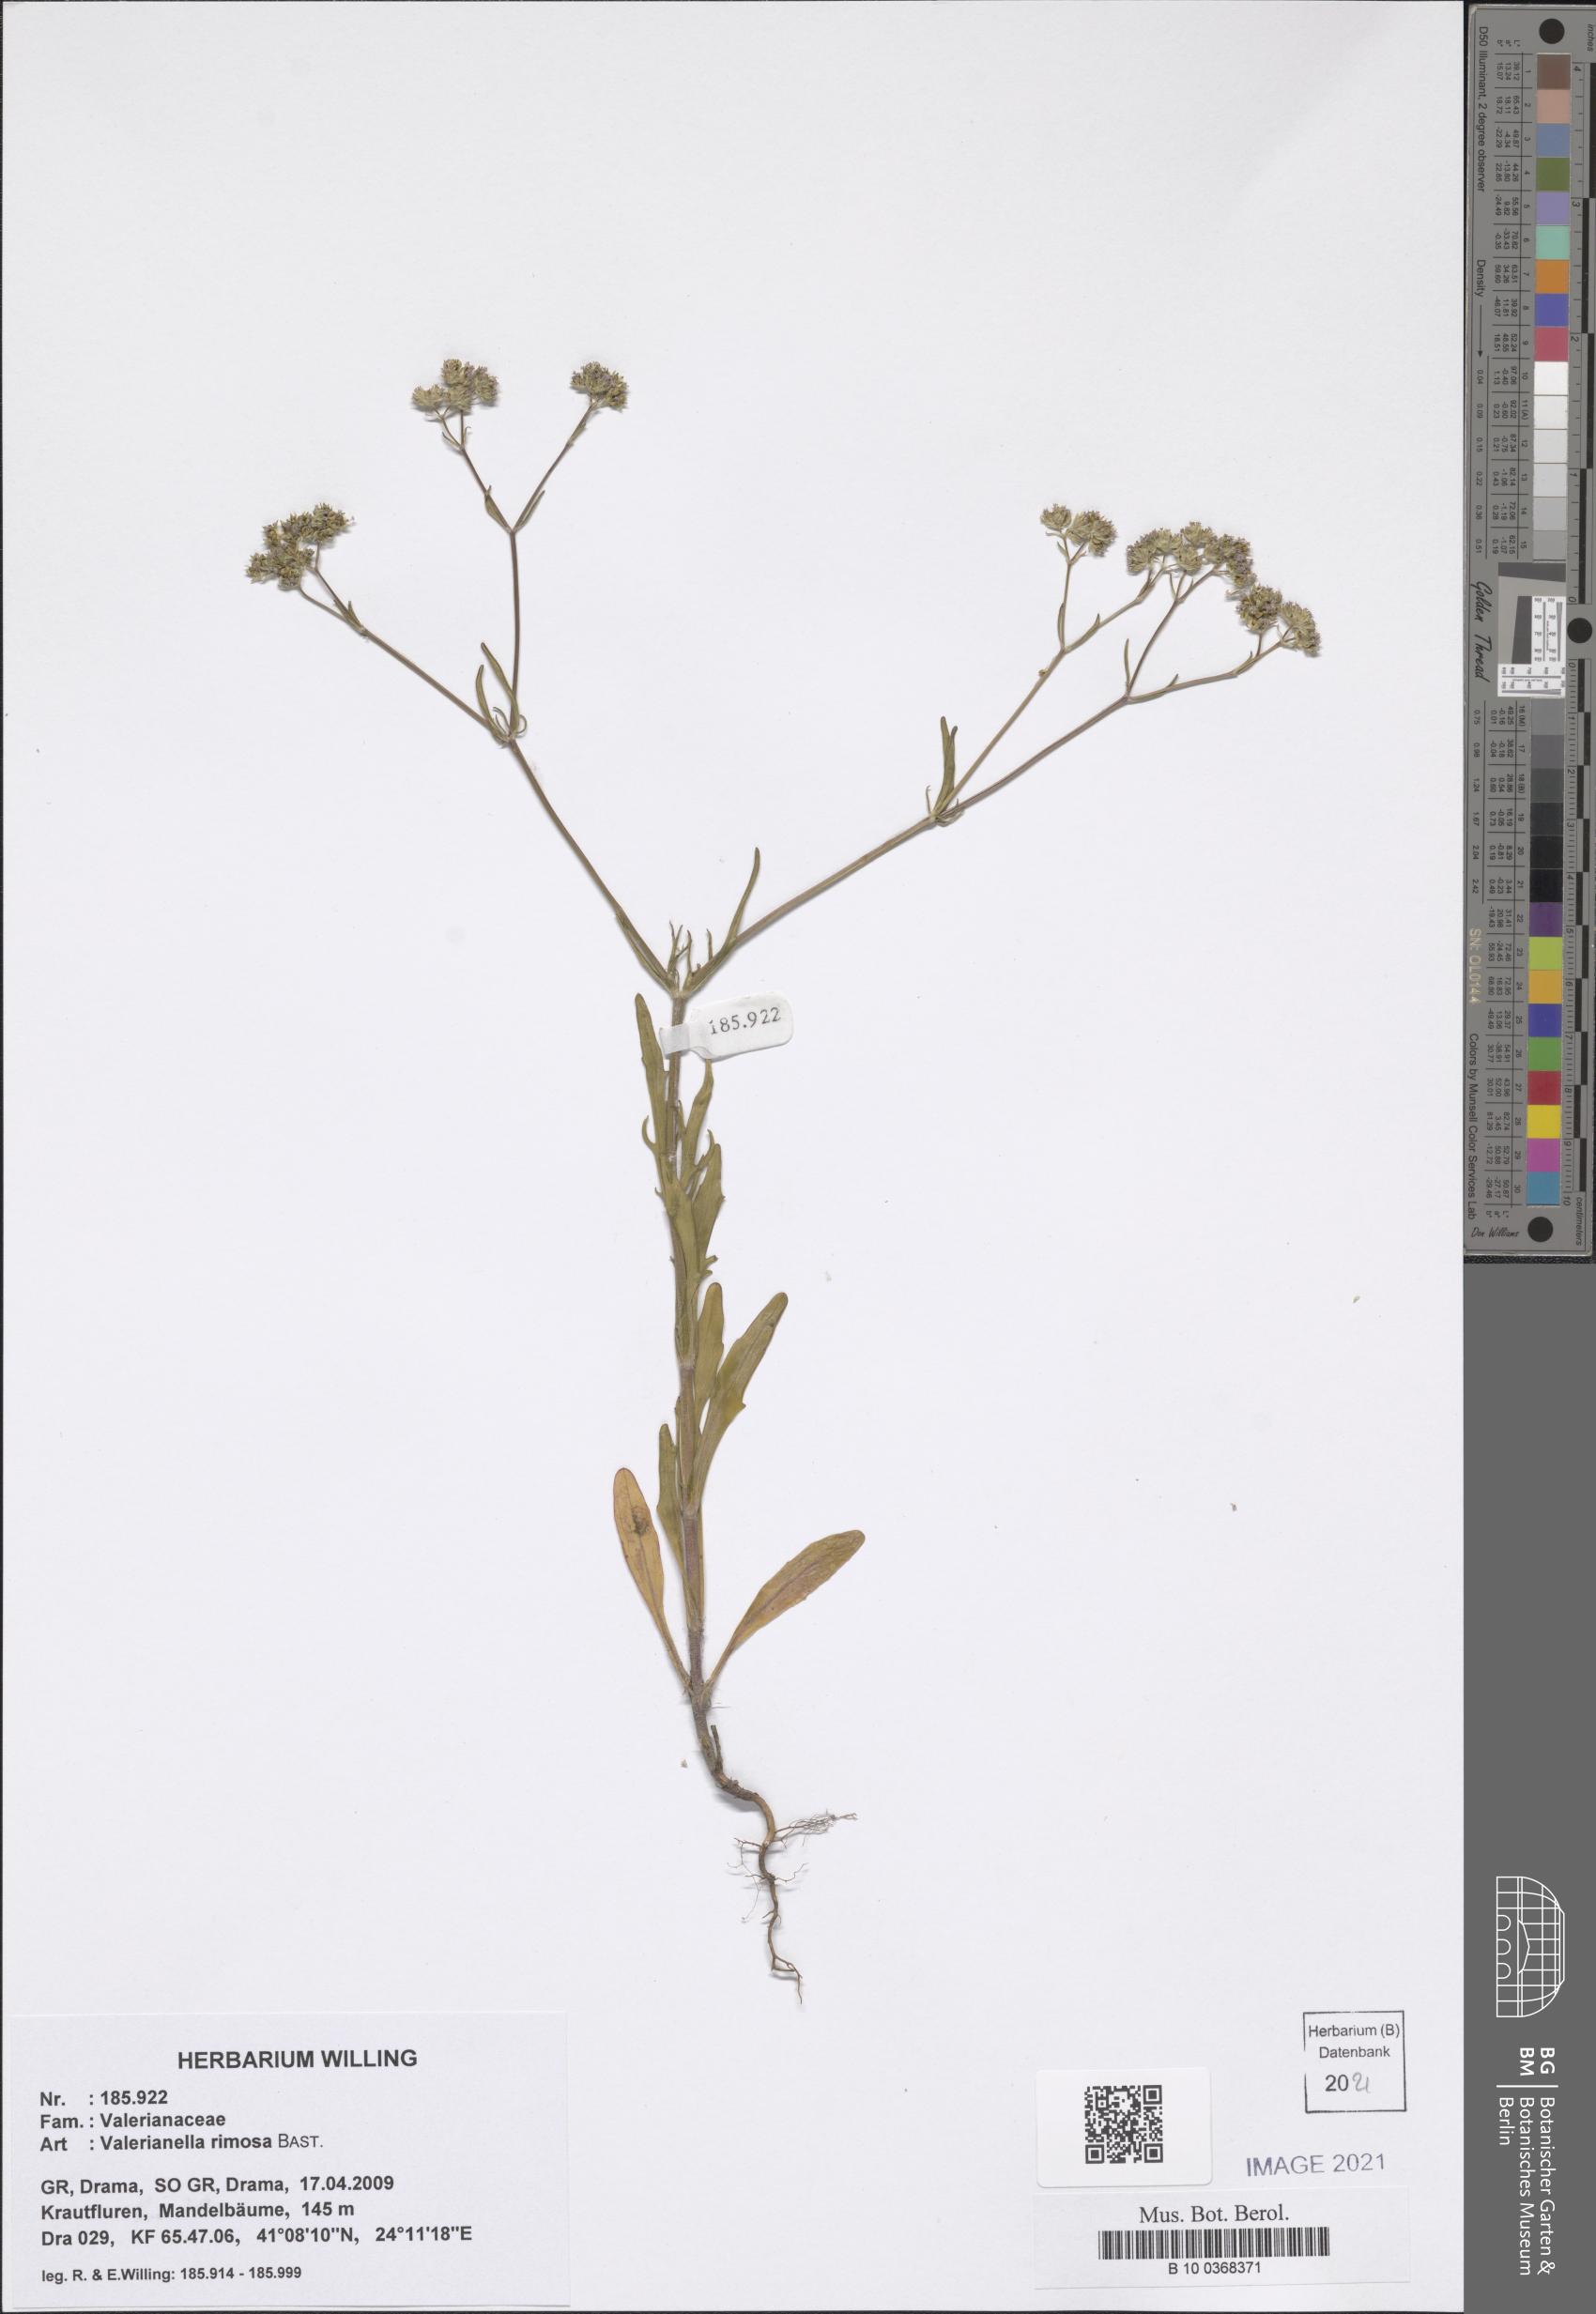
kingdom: Plantae
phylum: Tracheophyta
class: Magnoliopsida
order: Dipsacales
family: Caprifoliaceae
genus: Valerianella
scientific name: Valerianella rimosa
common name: Broad-fruited cornsalad
